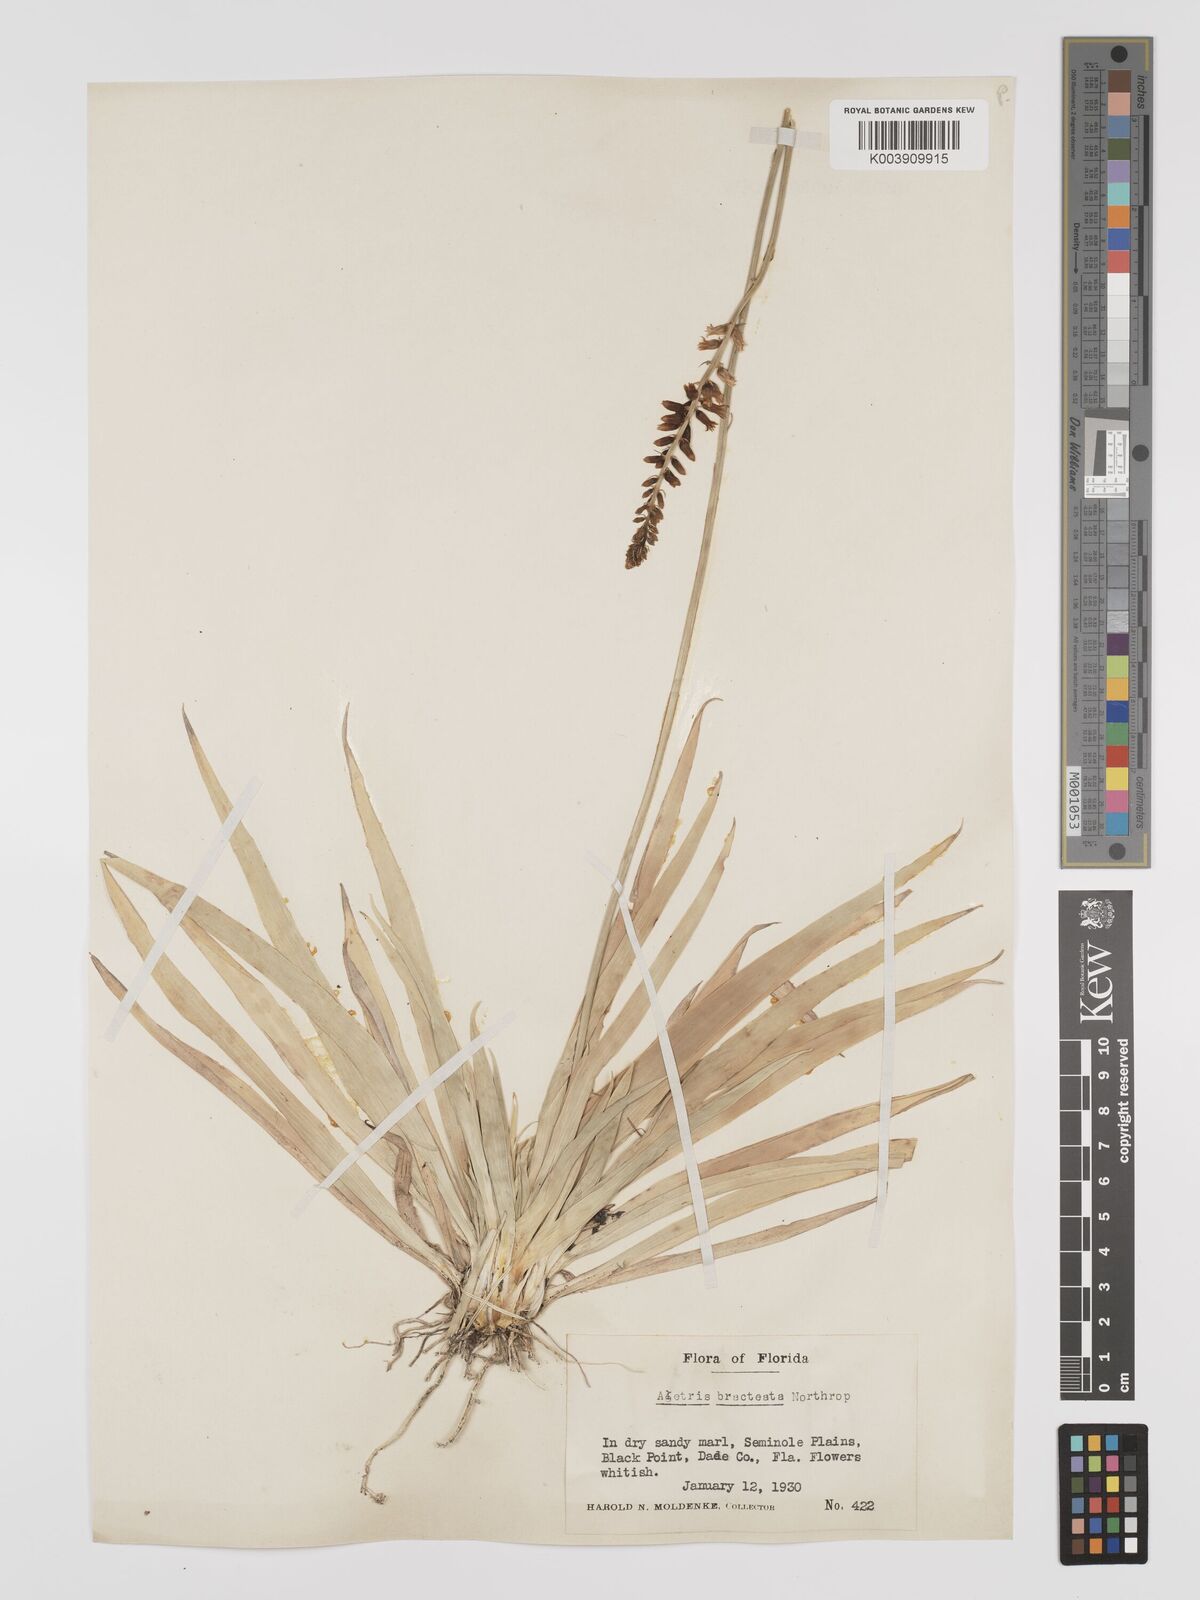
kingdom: Plantae
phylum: Tracheophyta
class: Liliopsida
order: Dioscoreales
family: Nartheciaceae
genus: Aletris
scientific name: Aletris bracteata
